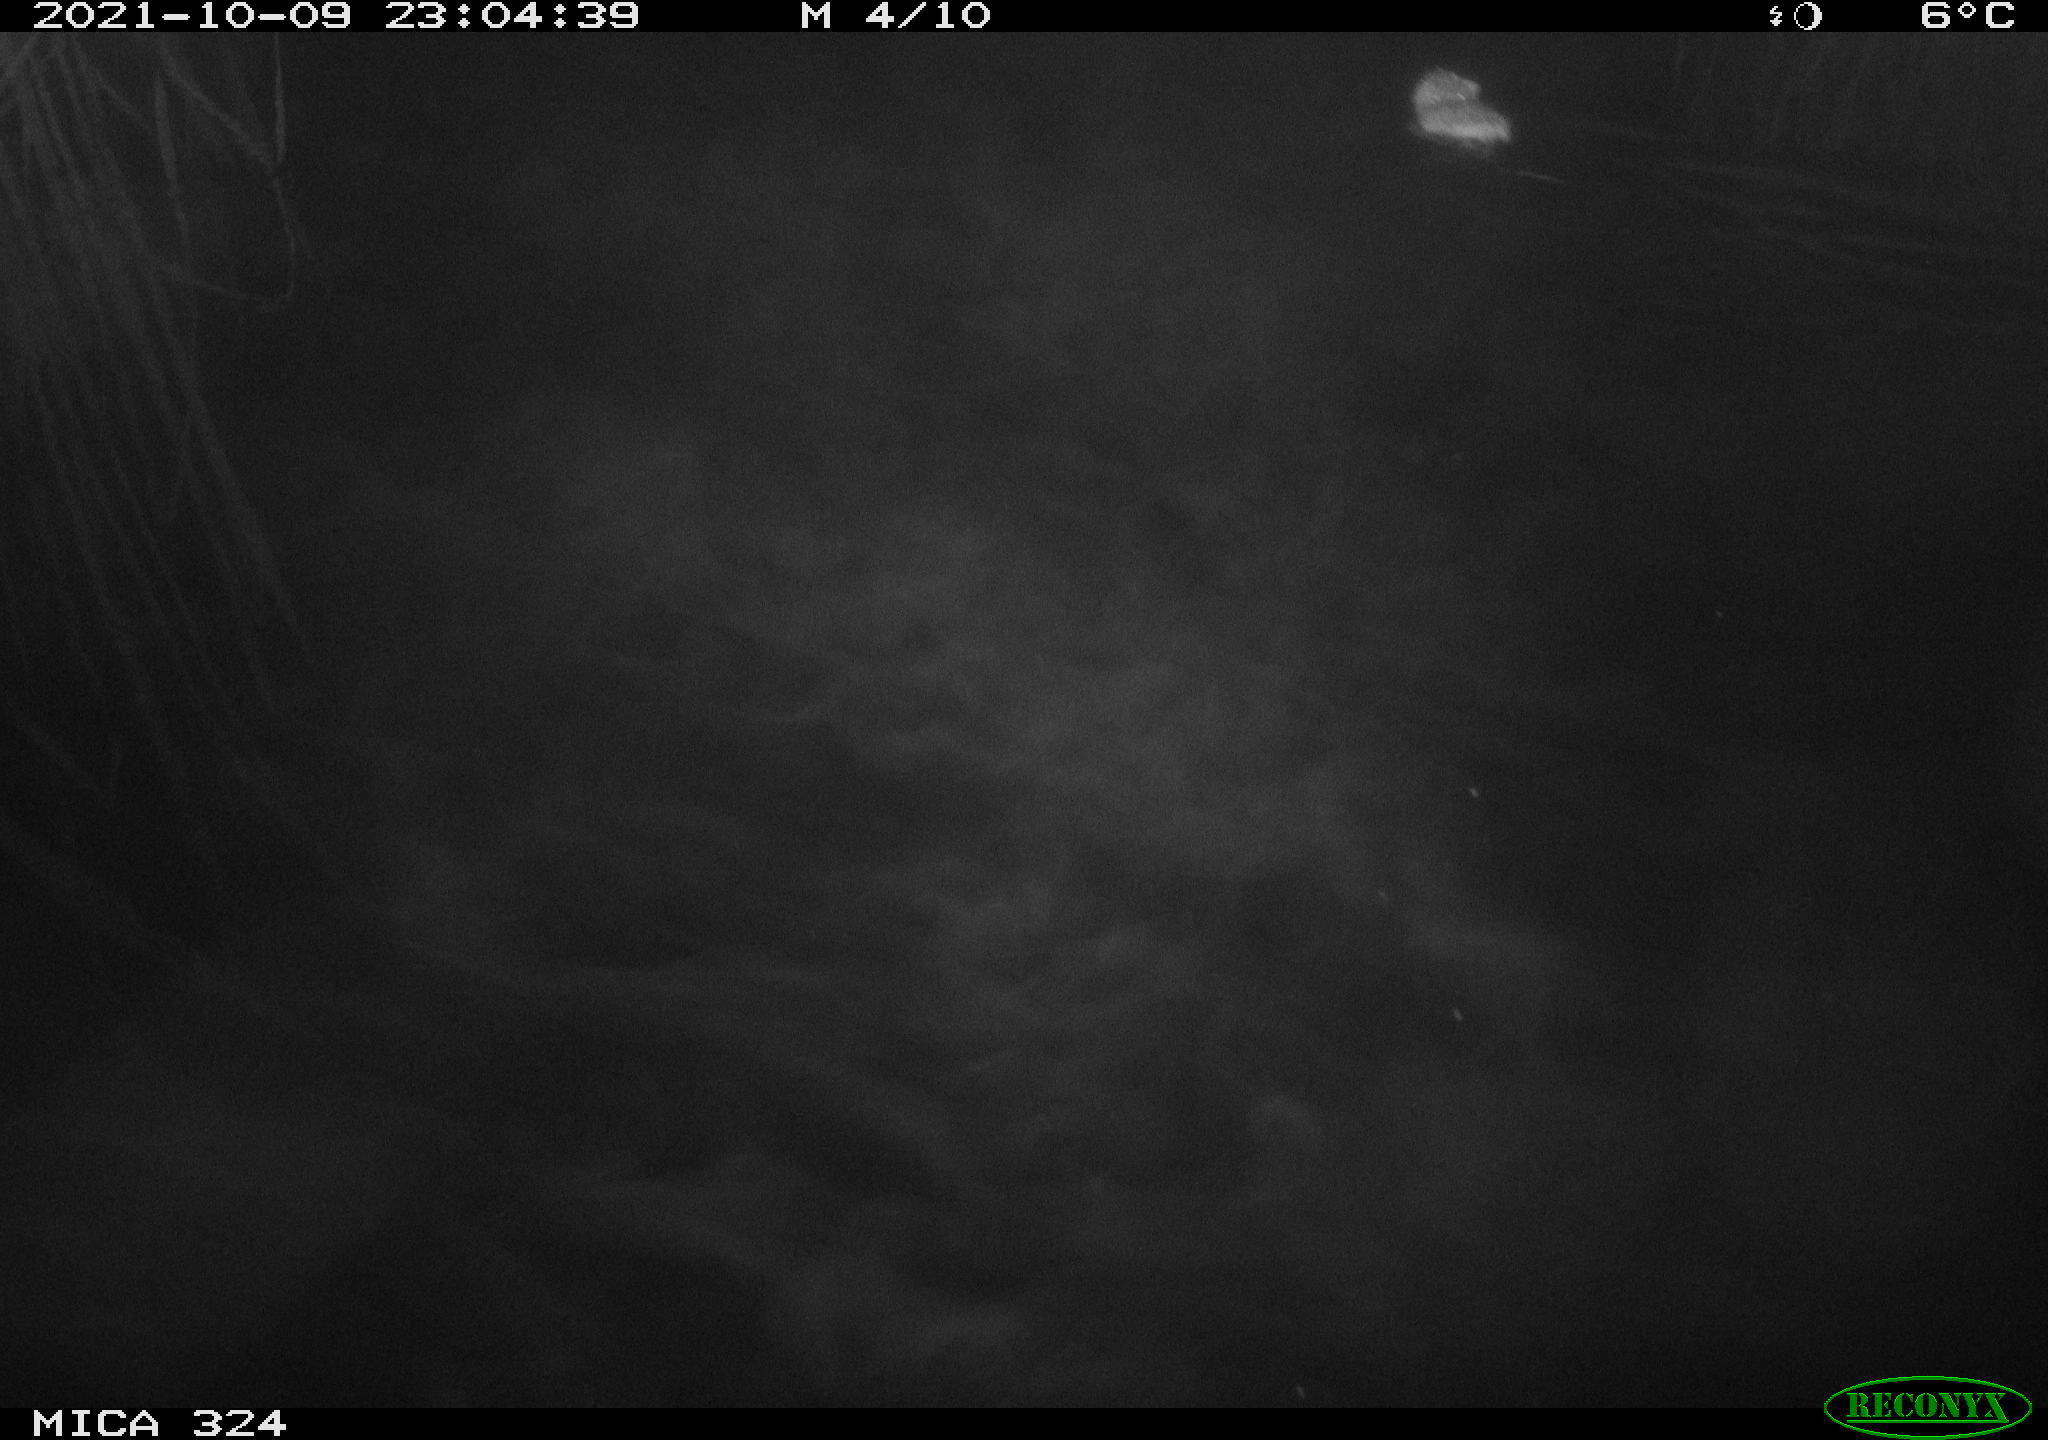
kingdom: Animalia
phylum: Chordata
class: Mammalia
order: Rodentia
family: Cricetidae
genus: Ondatra
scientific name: Ondatra zibethicus
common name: Muskrat
